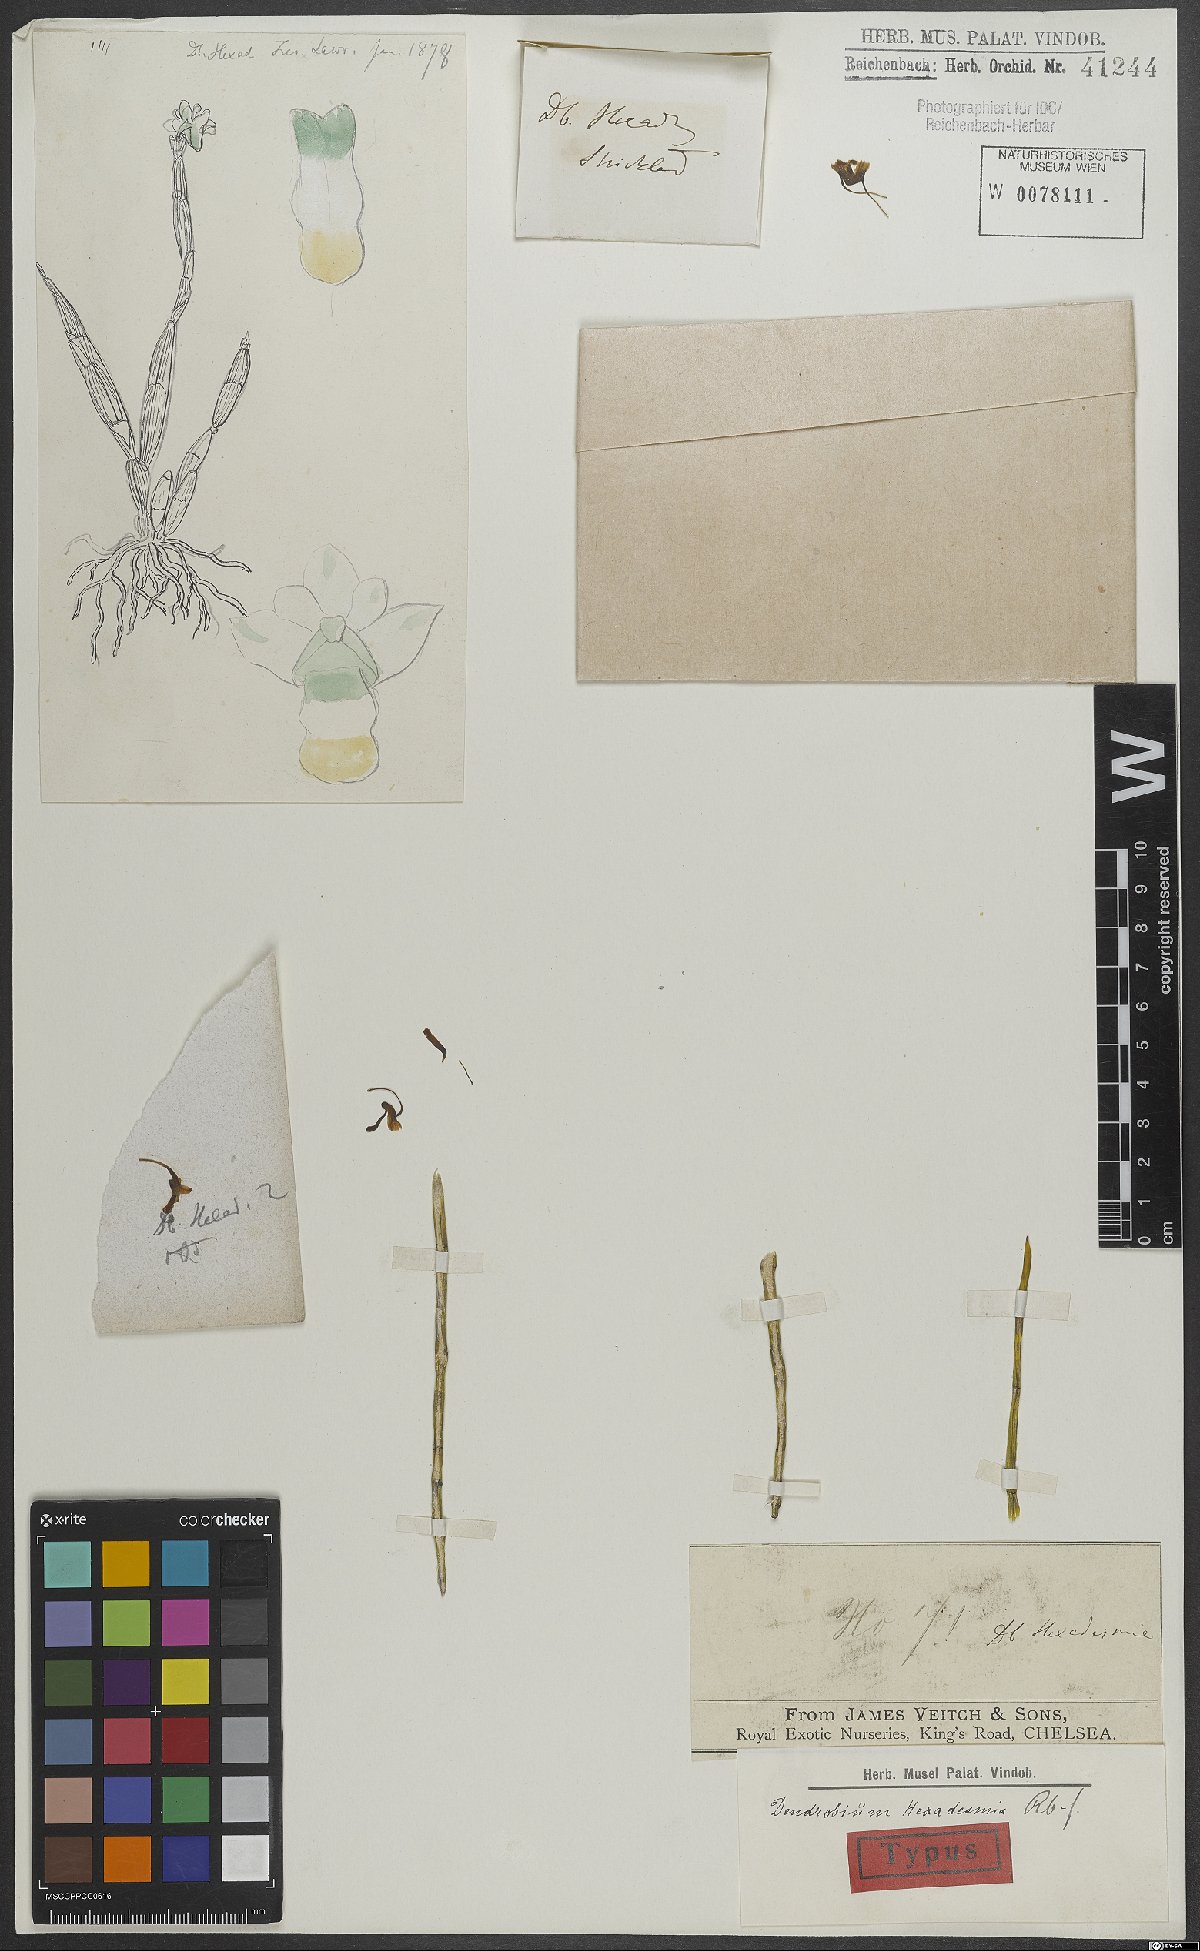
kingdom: Plantae
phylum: Tracheophyta
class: Liliopsida
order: Asparagales
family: Orchidaceae
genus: Dendrobium
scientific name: Dendrobium parcum
